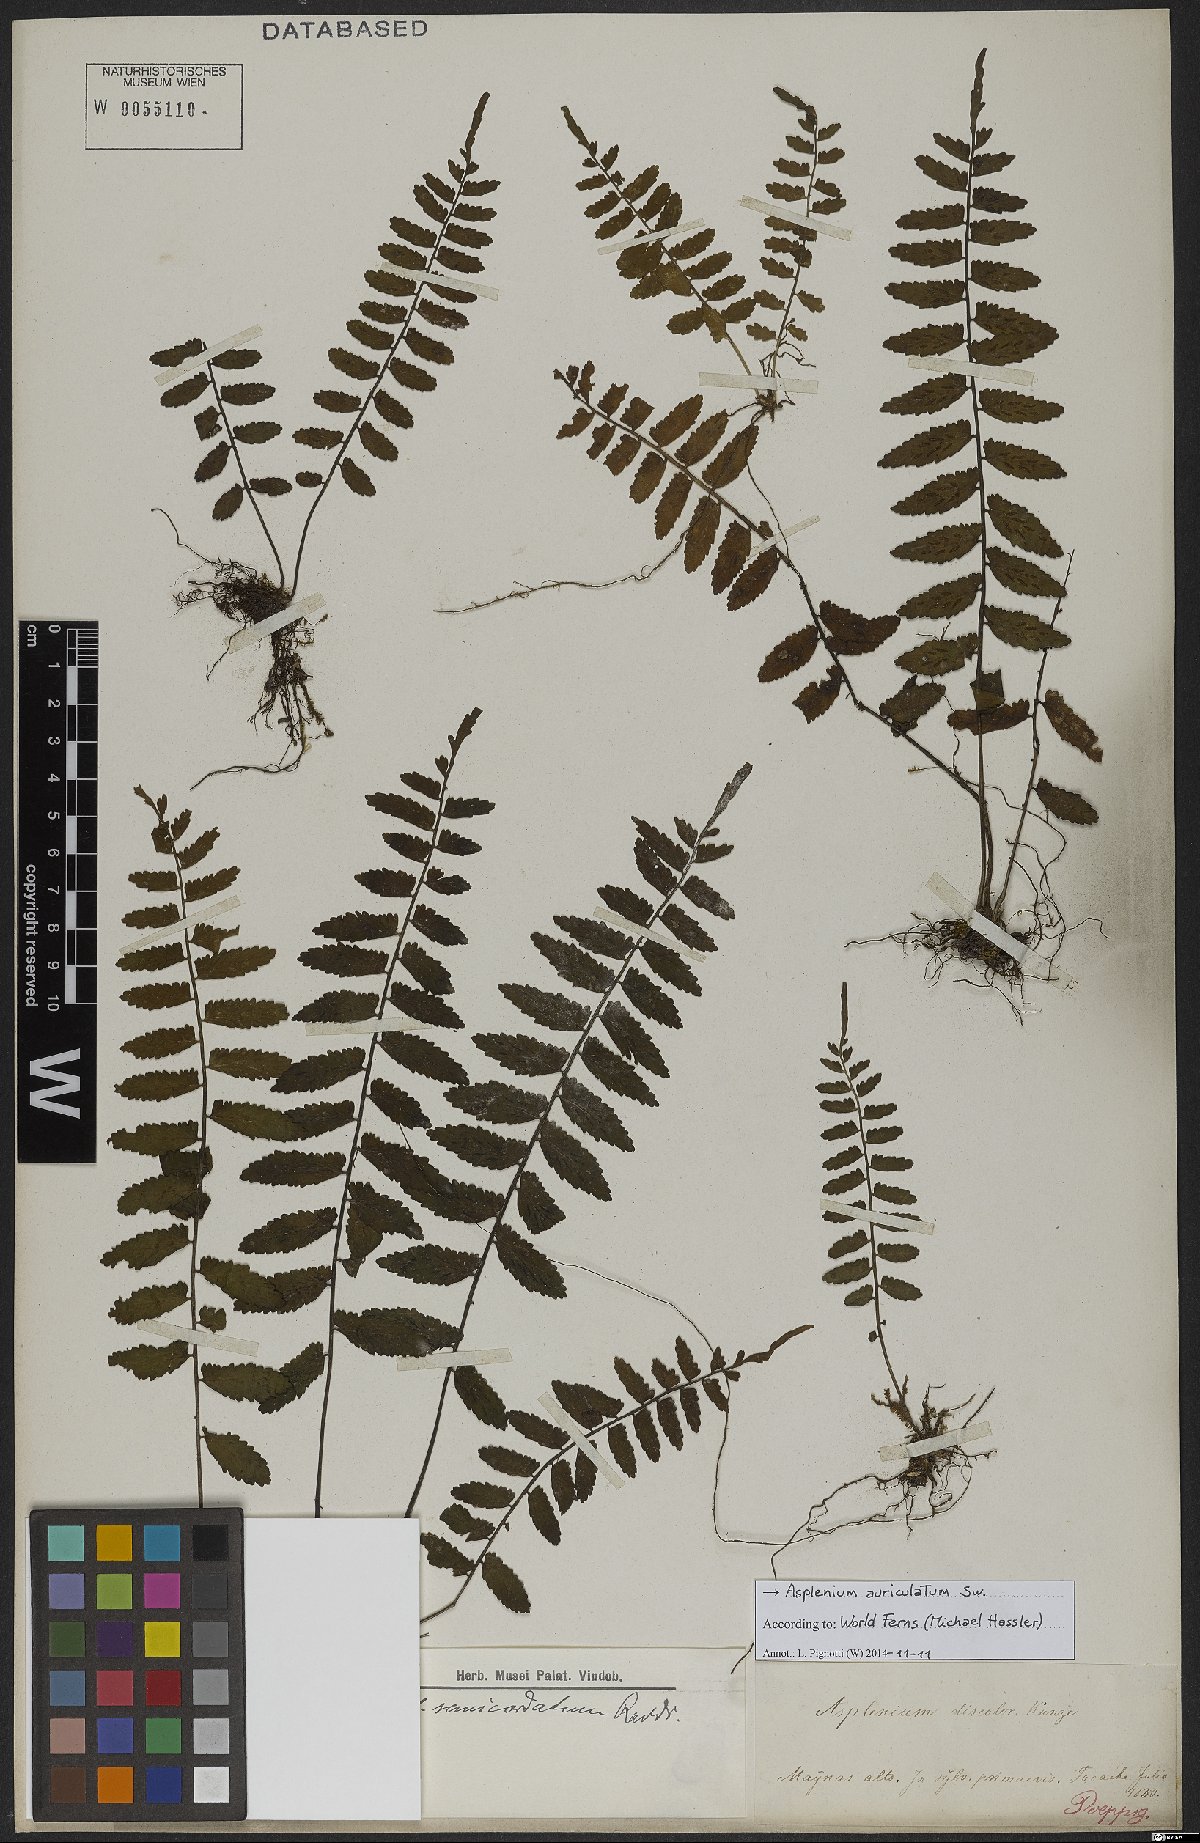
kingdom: Plantae
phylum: Tracheophyta
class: Polypodiopsida
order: Polypodiales
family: Aspleniaceae
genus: Asplenium
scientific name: Asplenium auriculatum
